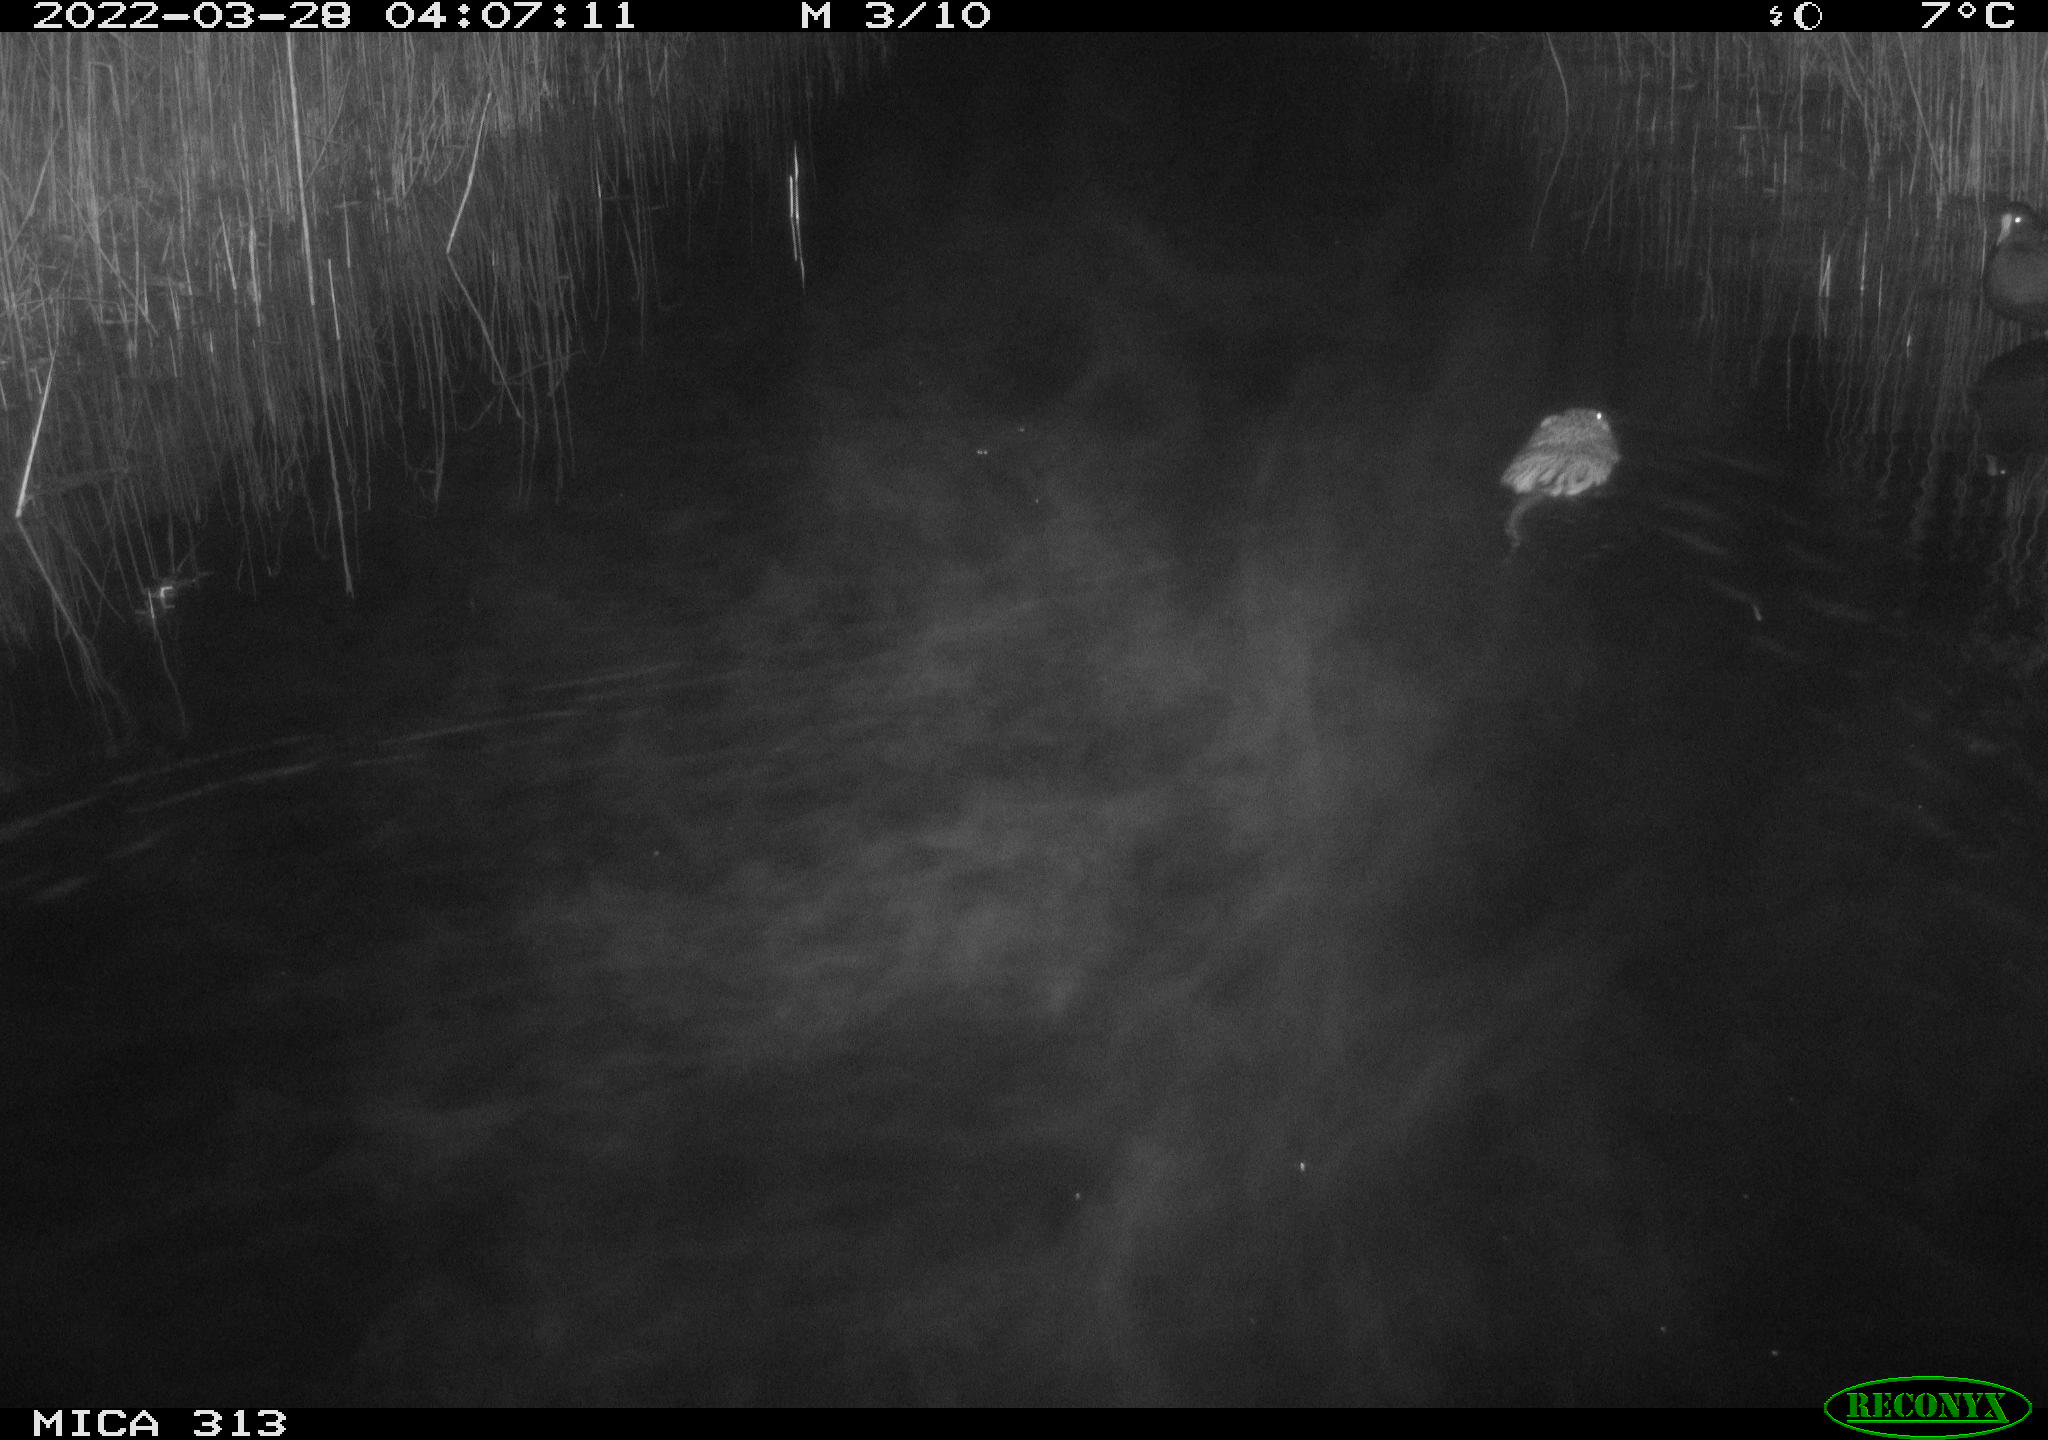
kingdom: Animalia
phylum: Chordata
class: Mammalia
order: Rodentia
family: Cricetidae
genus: Ondatra
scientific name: Ondatra zibethicus
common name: Muskrat
